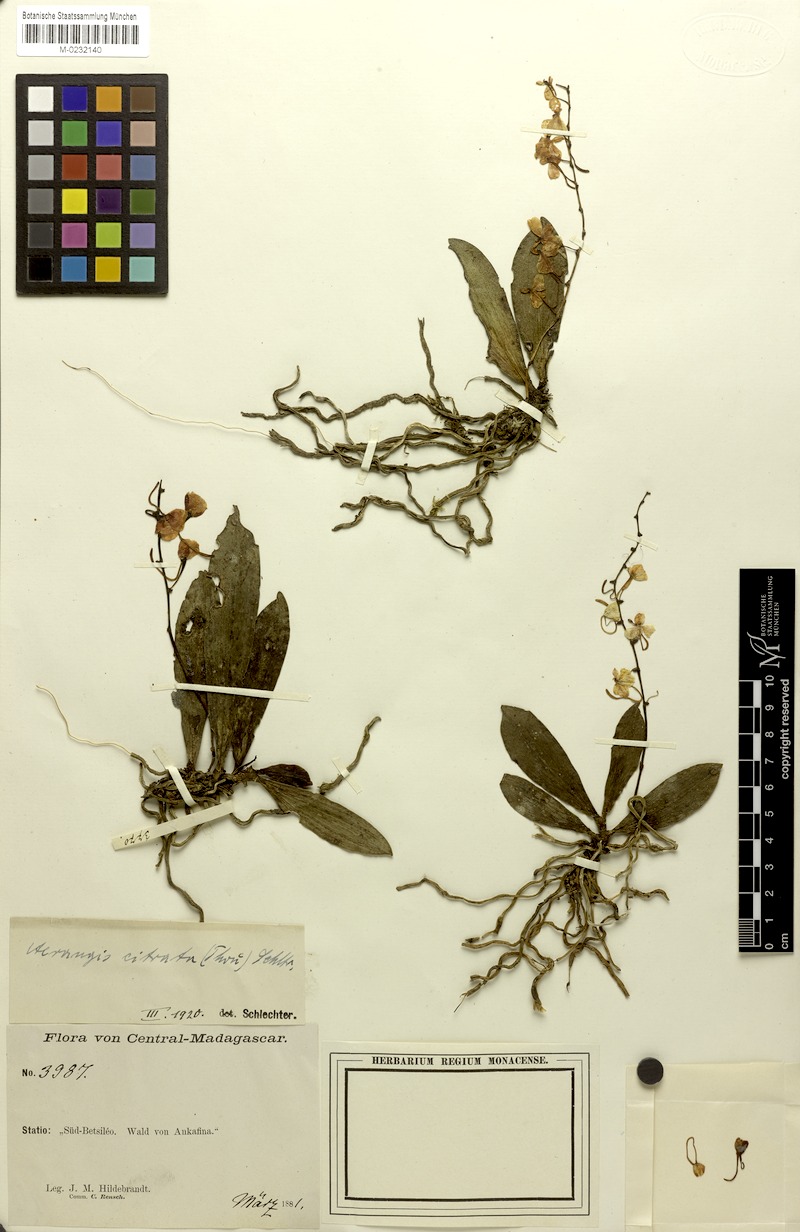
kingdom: Plantae
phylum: Tracheophyta
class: Liliopsida
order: Asparagales
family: Orchidaceae
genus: Aerangis
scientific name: Aerangis citrata
